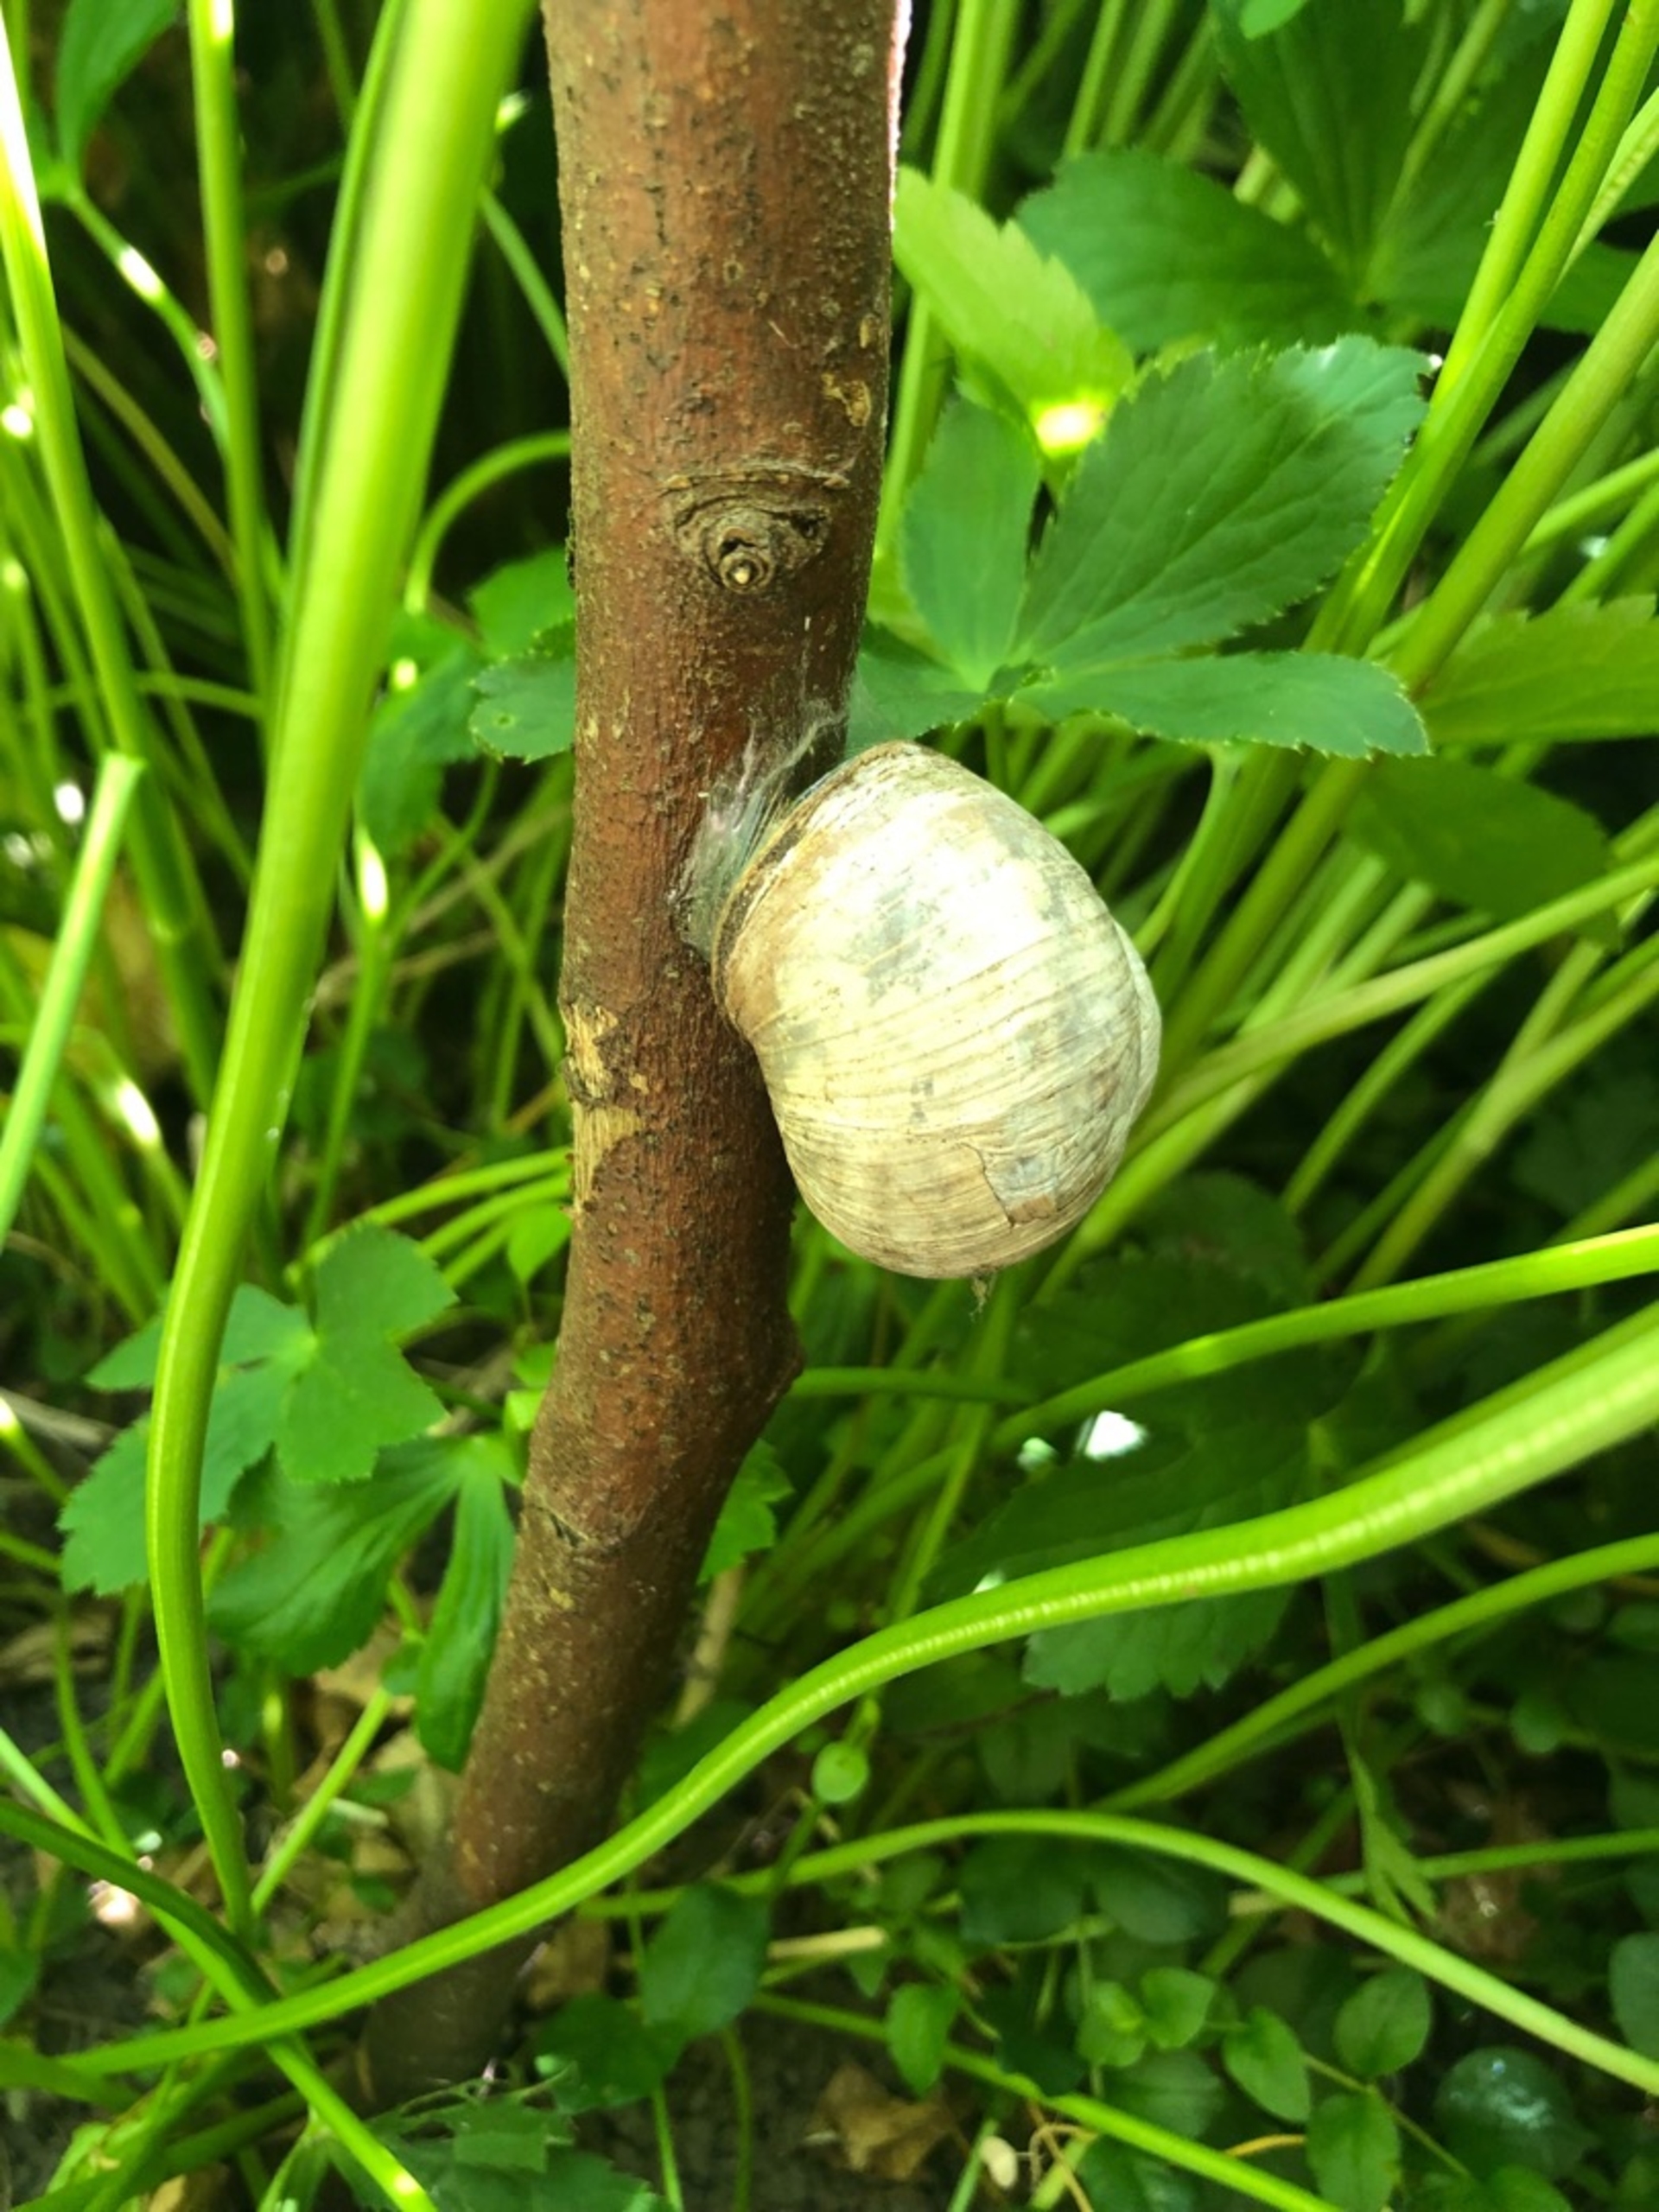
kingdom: Animalia
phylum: Mollusca
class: Gastropoda
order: Stylommatophora
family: Helicidae
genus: Helix
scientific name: Helix pomatia
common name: Vinbjergsnegl
